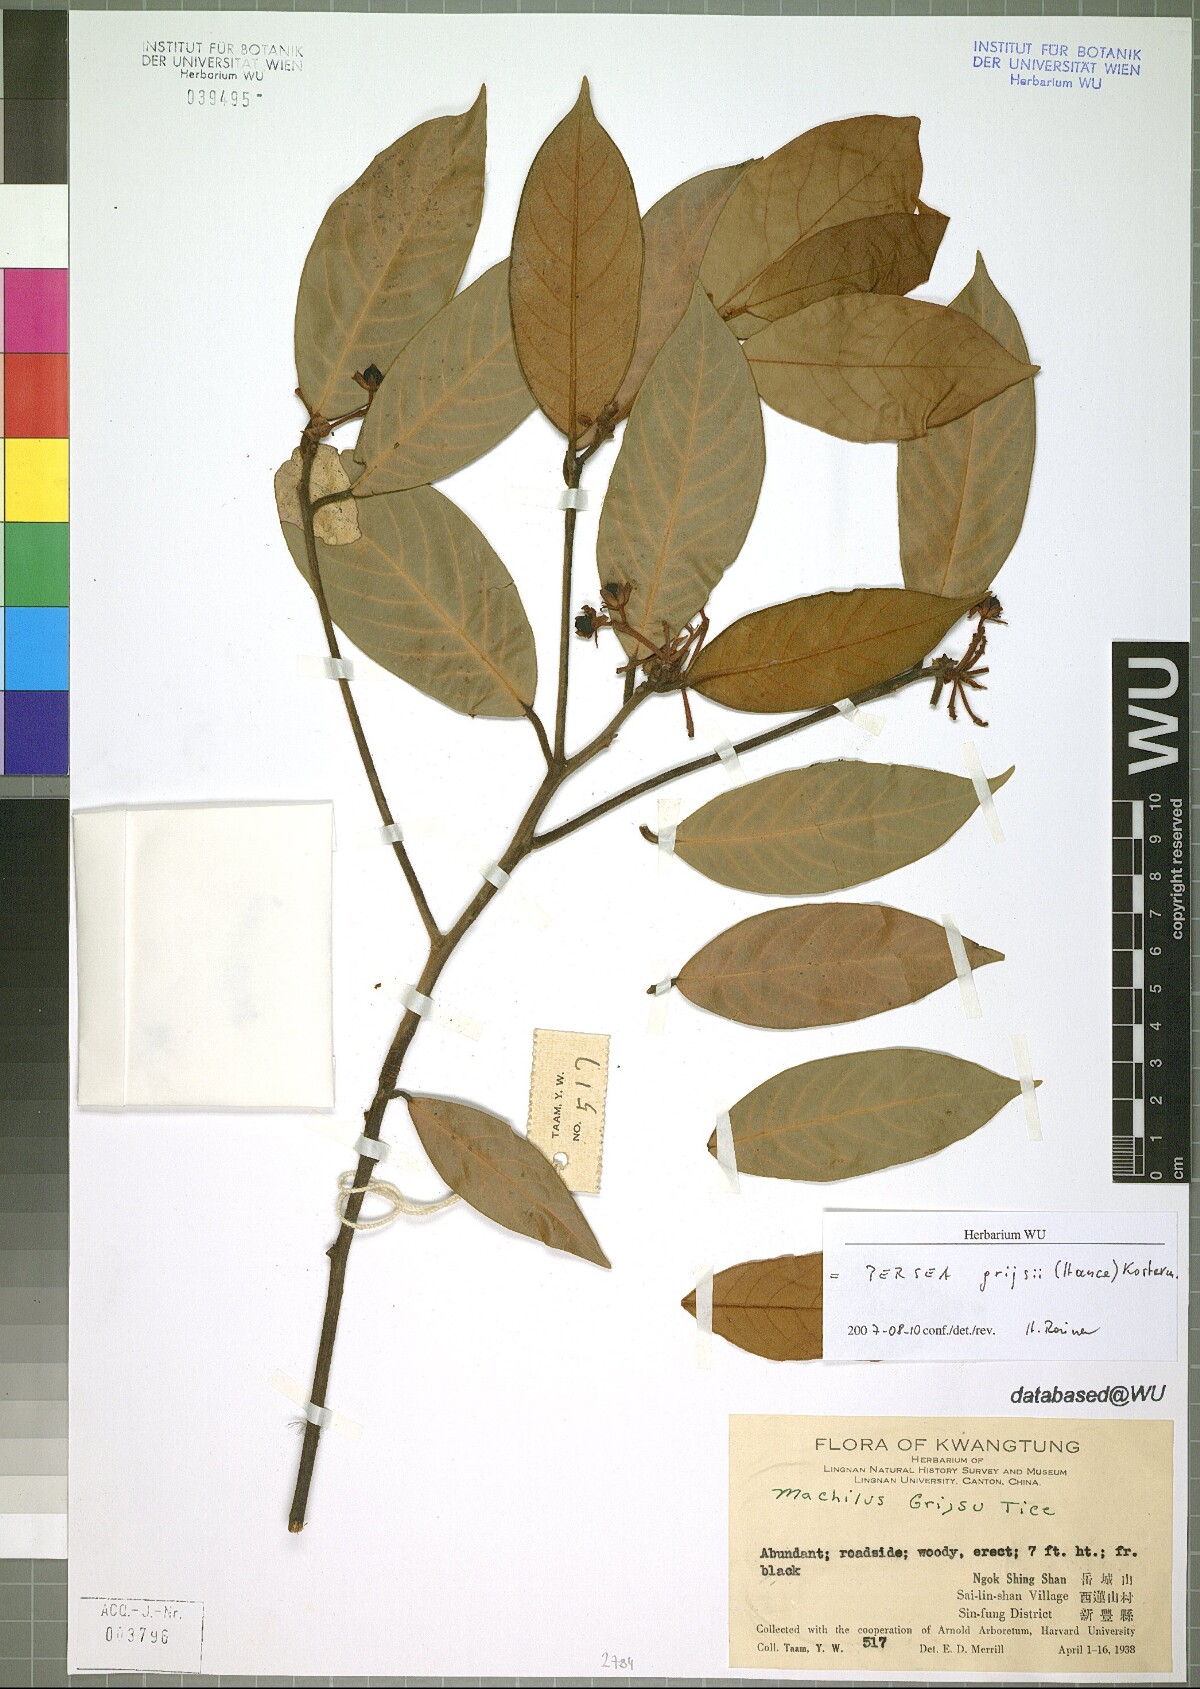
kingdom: Plantae
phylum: Tracheophyta
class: Magnoliopsida
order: Laurales
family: Lauraceae
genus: Machilus
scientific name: Machilus grijsii
